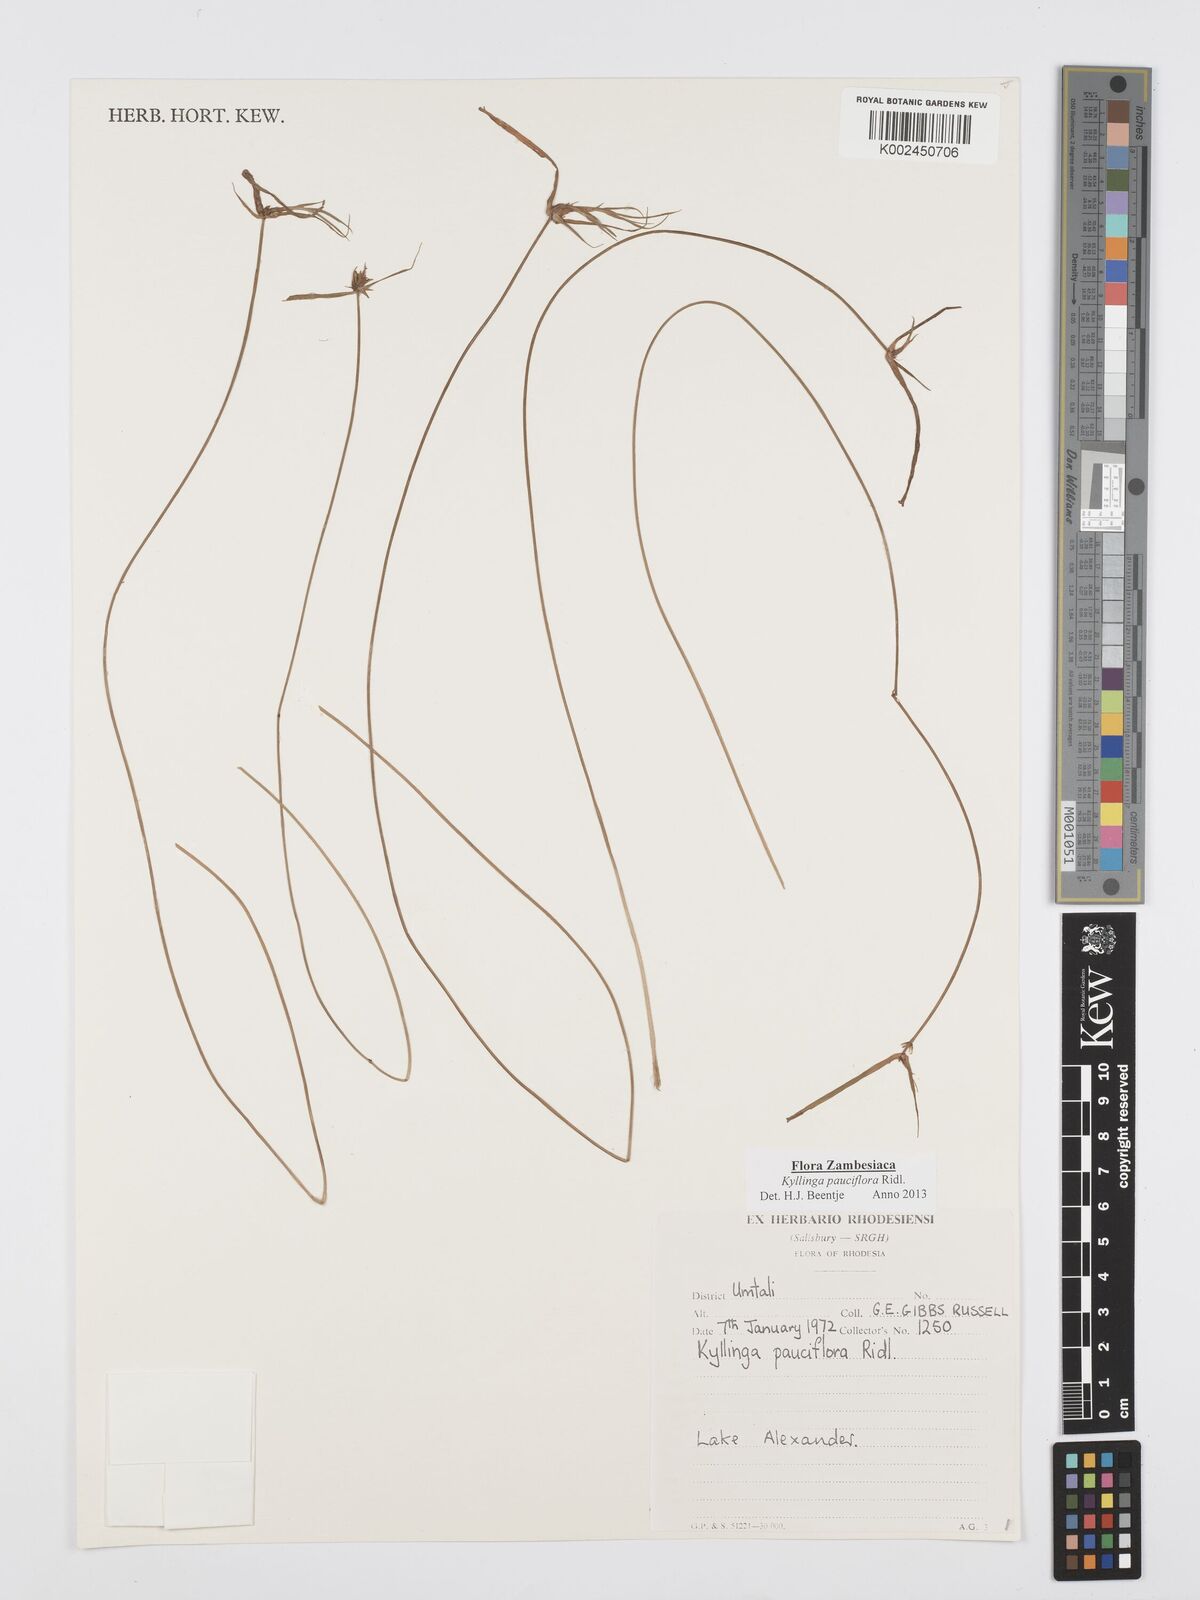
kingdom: Plantae
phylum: Tracheophyta
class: Liliopsida
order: Poales
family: Cyperaceae
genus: Cyperus
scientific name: Cyperus
